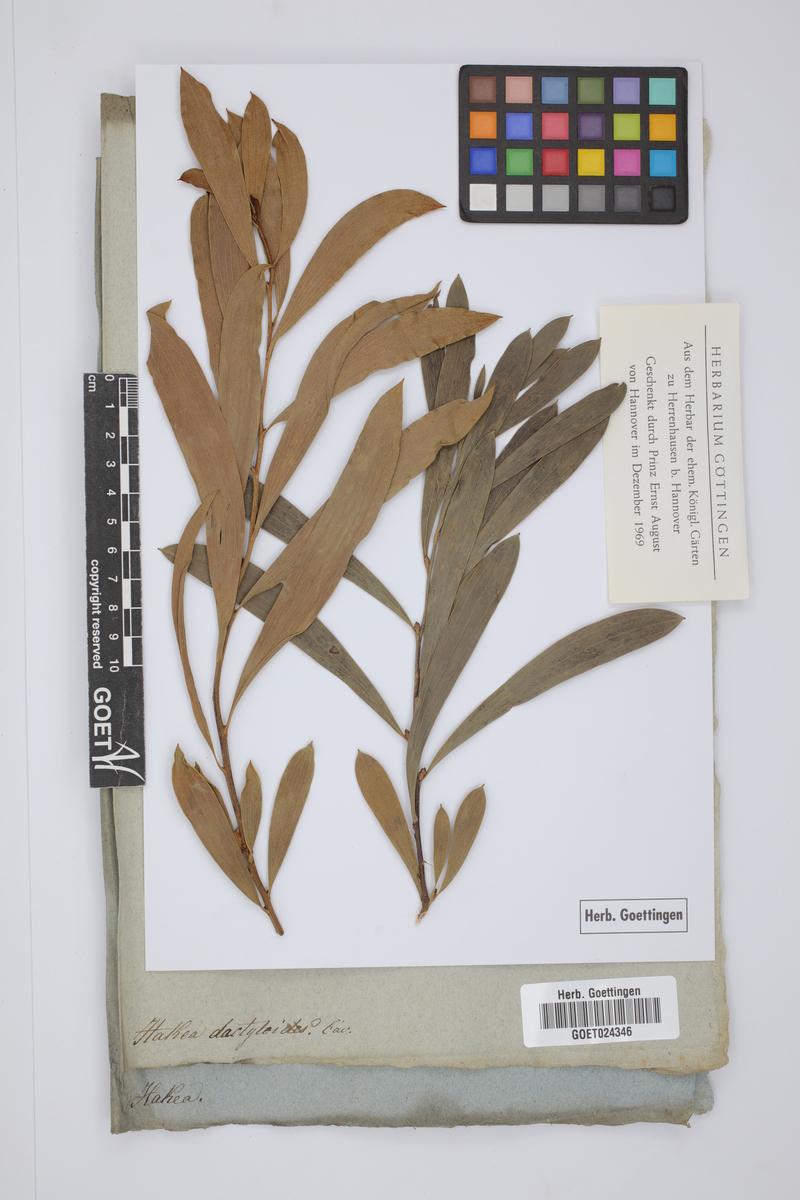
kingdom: Plantae
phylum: Tracheophyta
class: Magnoliopsida
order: Proteales
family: Proteaceae
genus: Hakea
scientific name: Hakea dactyloides
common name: Finger hakea
